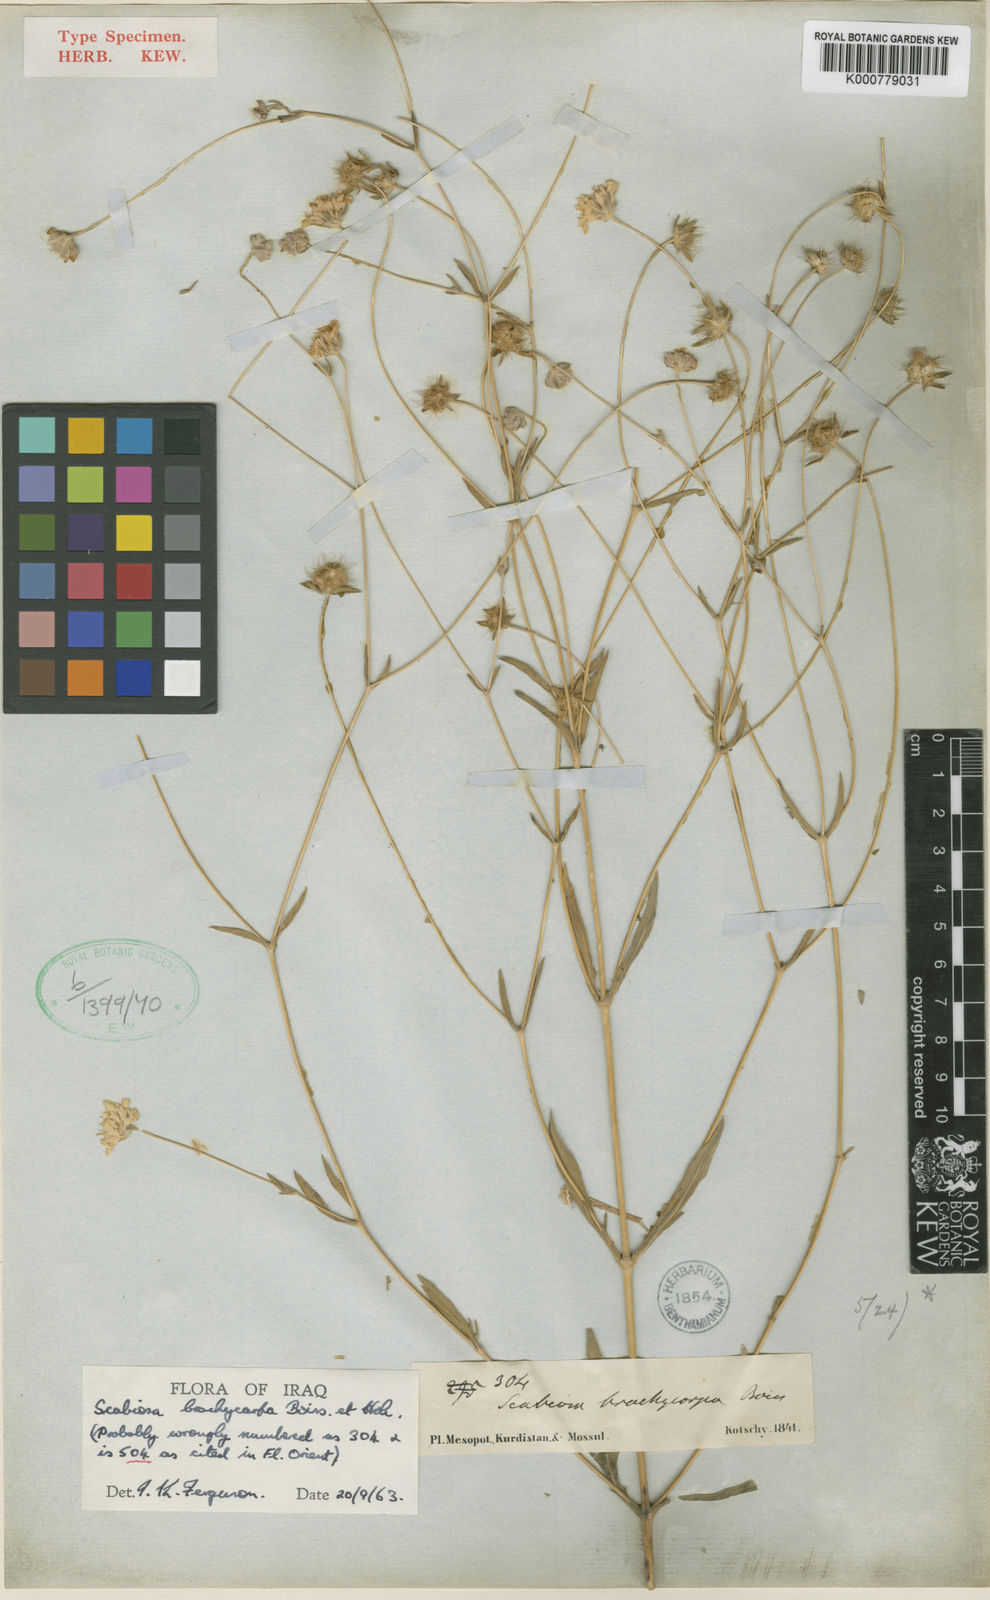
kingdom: Plantae
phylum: Tracheophyta
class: Magnoliopsida
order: Dipsacales
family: Caprifoliaceae
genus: Lomelosia
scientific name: Lomelosia brachycarpa
